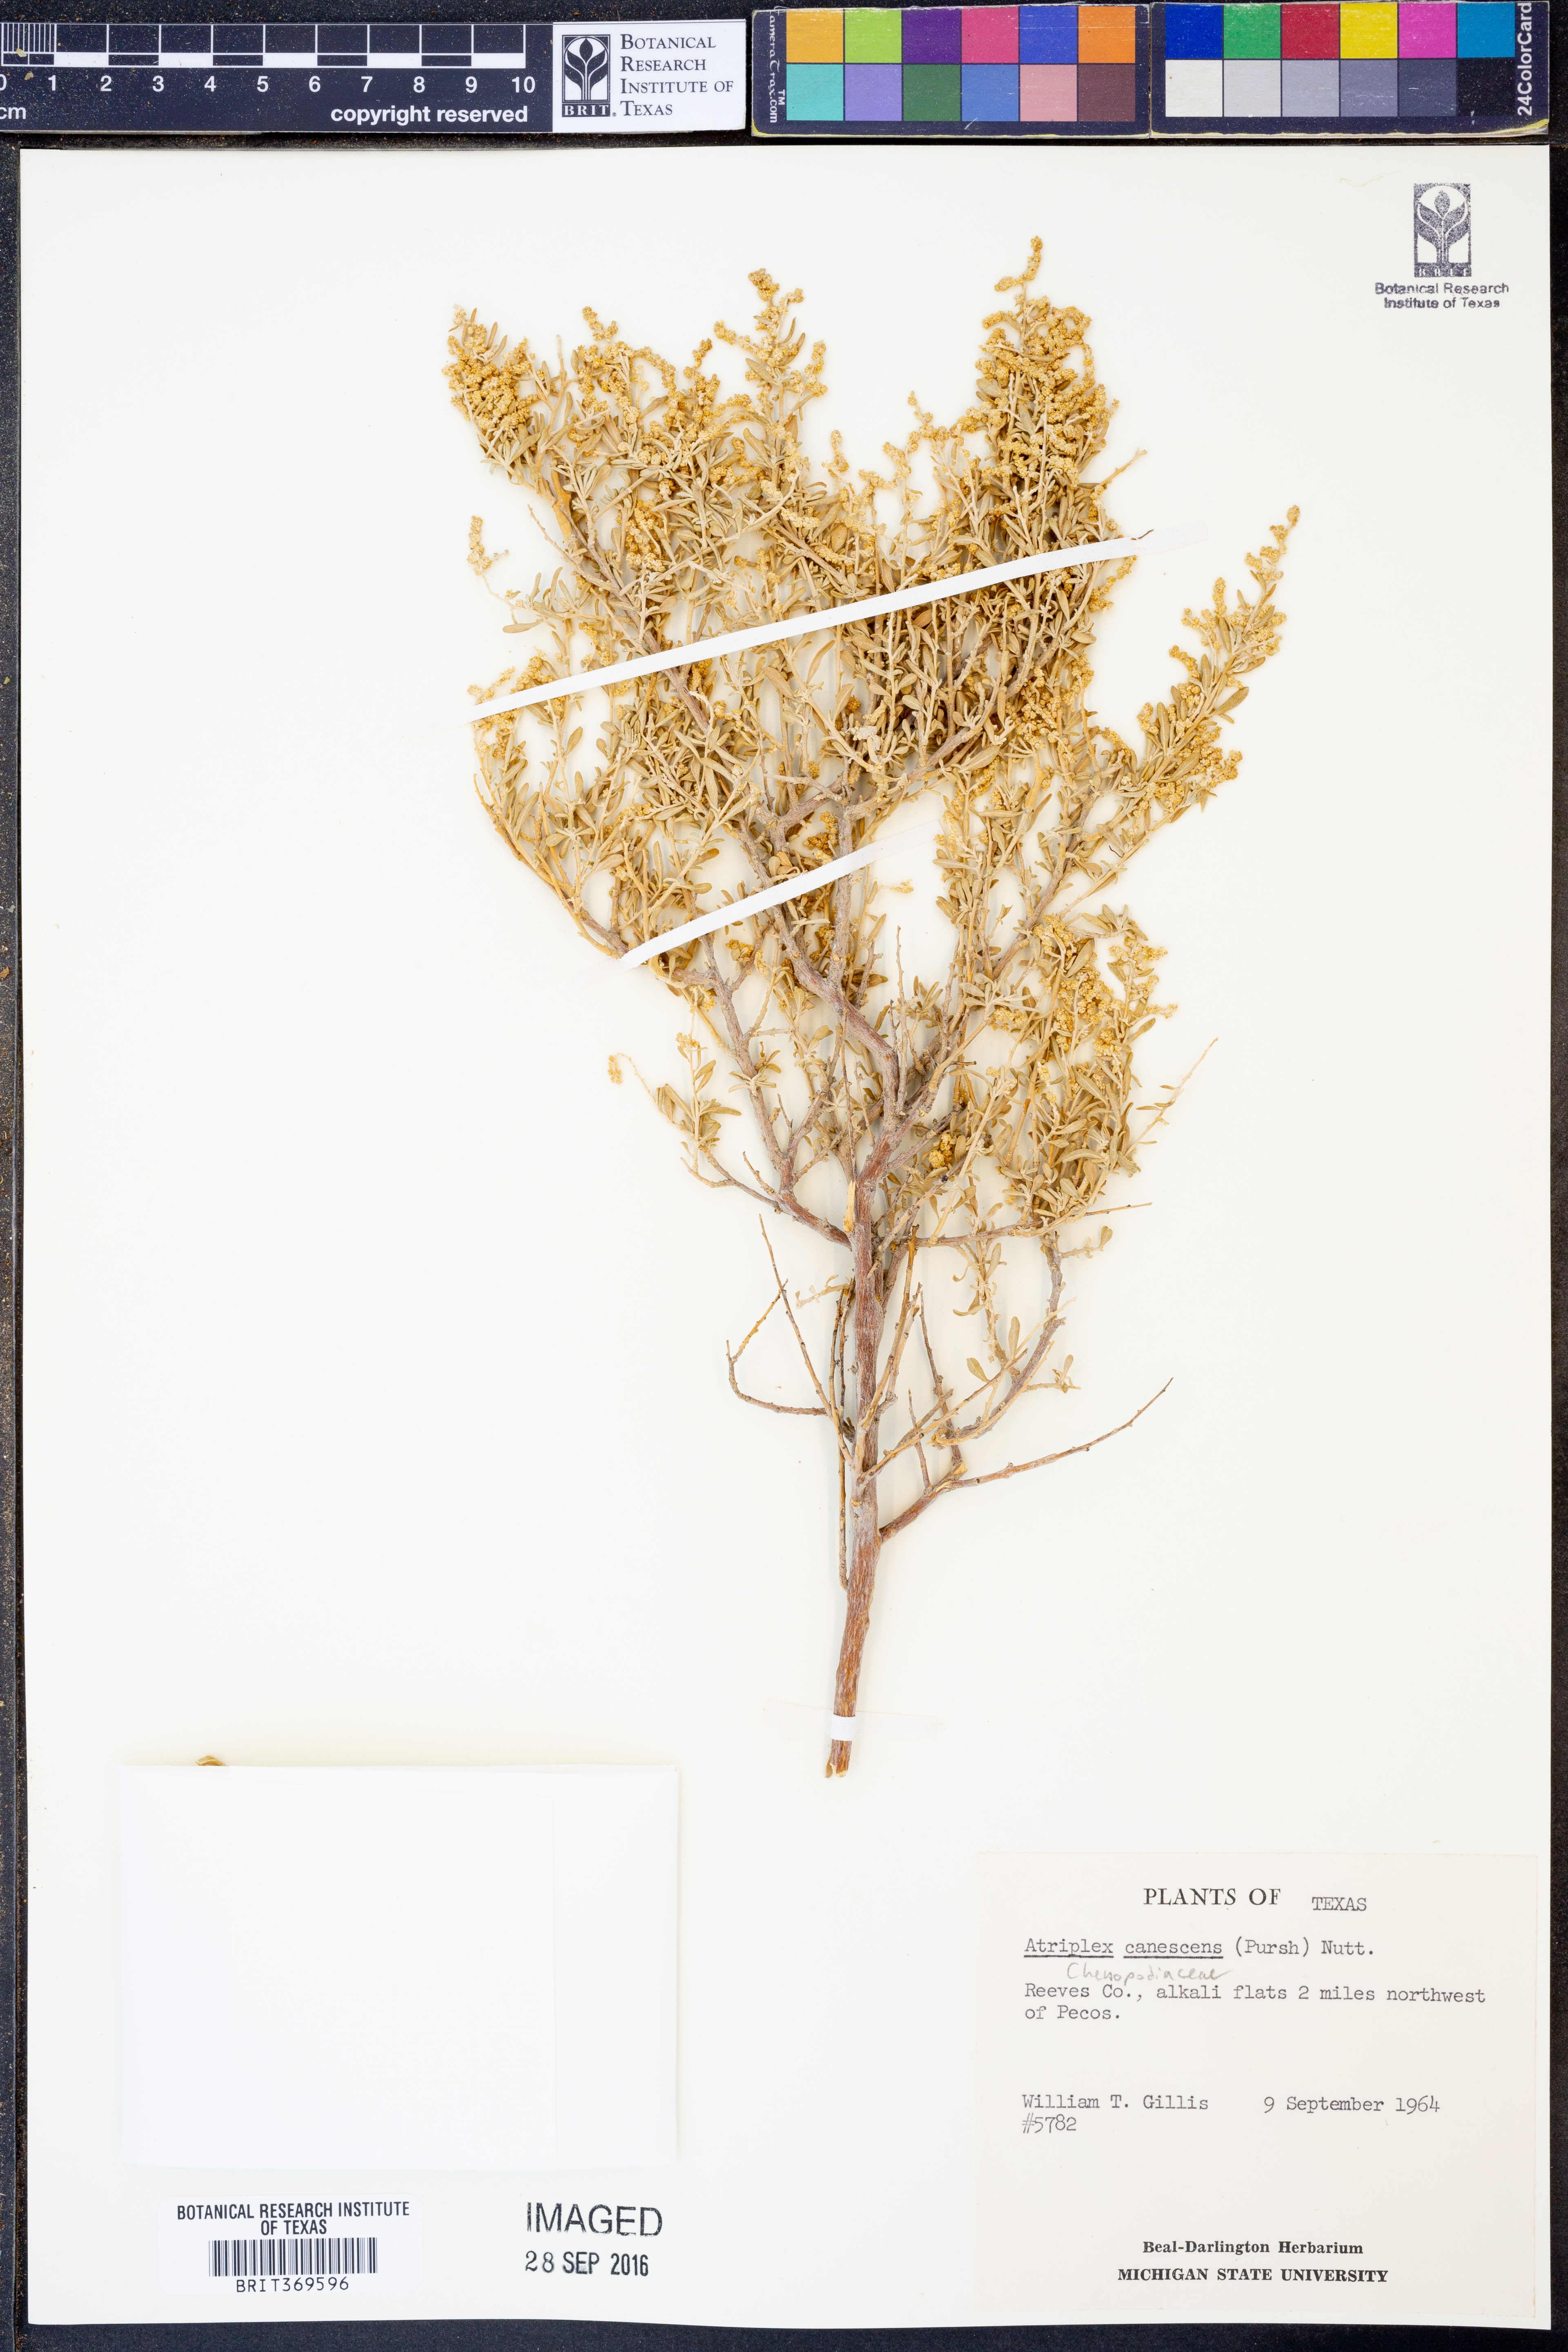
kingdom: Plantae
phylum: Tracheophyta
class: Magnoliopsida
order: Caryophyllales
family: Amaranthaceae
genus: Atriplex
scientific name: Atriplex canescens
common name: Four-wing saltbush
